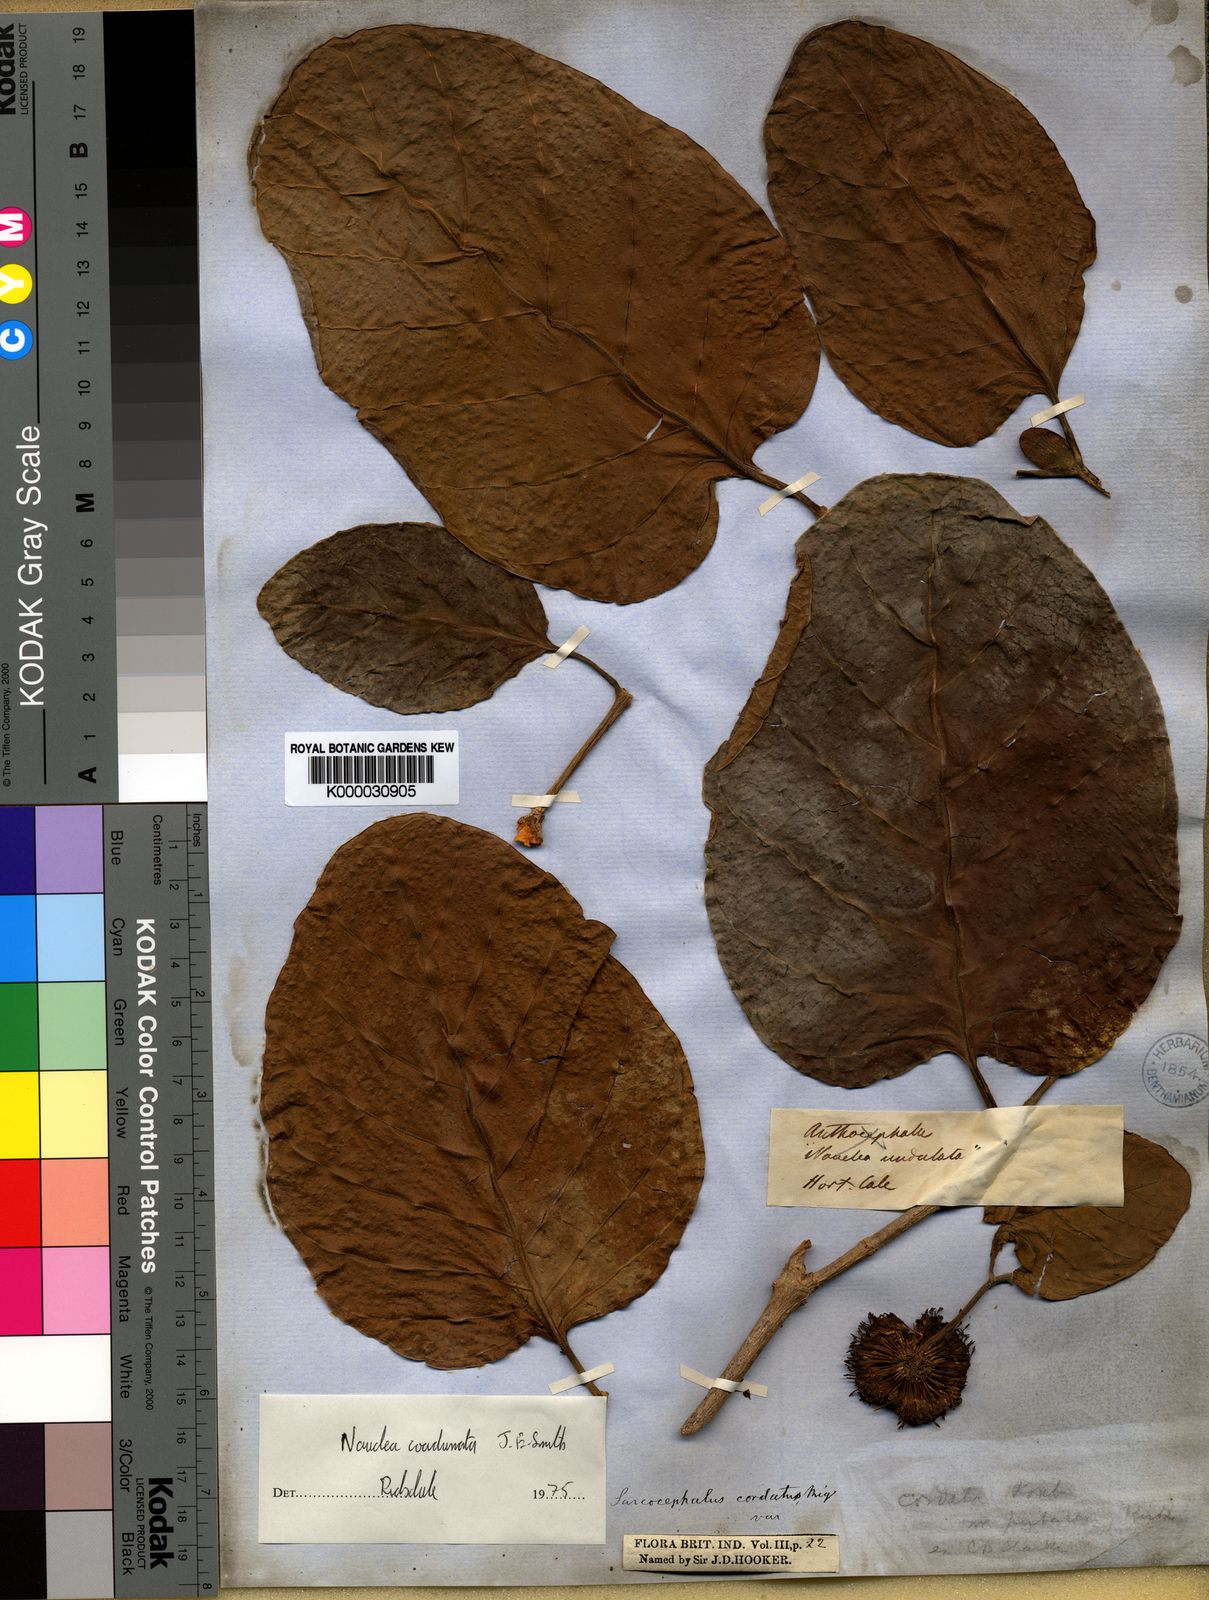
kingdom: Plantae
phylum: Tracheophyta
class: Magnoliopsida
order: Gentianales
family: Rubiaceae
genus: Nauclea
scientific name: Nauclea orientalis
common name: Leichhardt-pine
